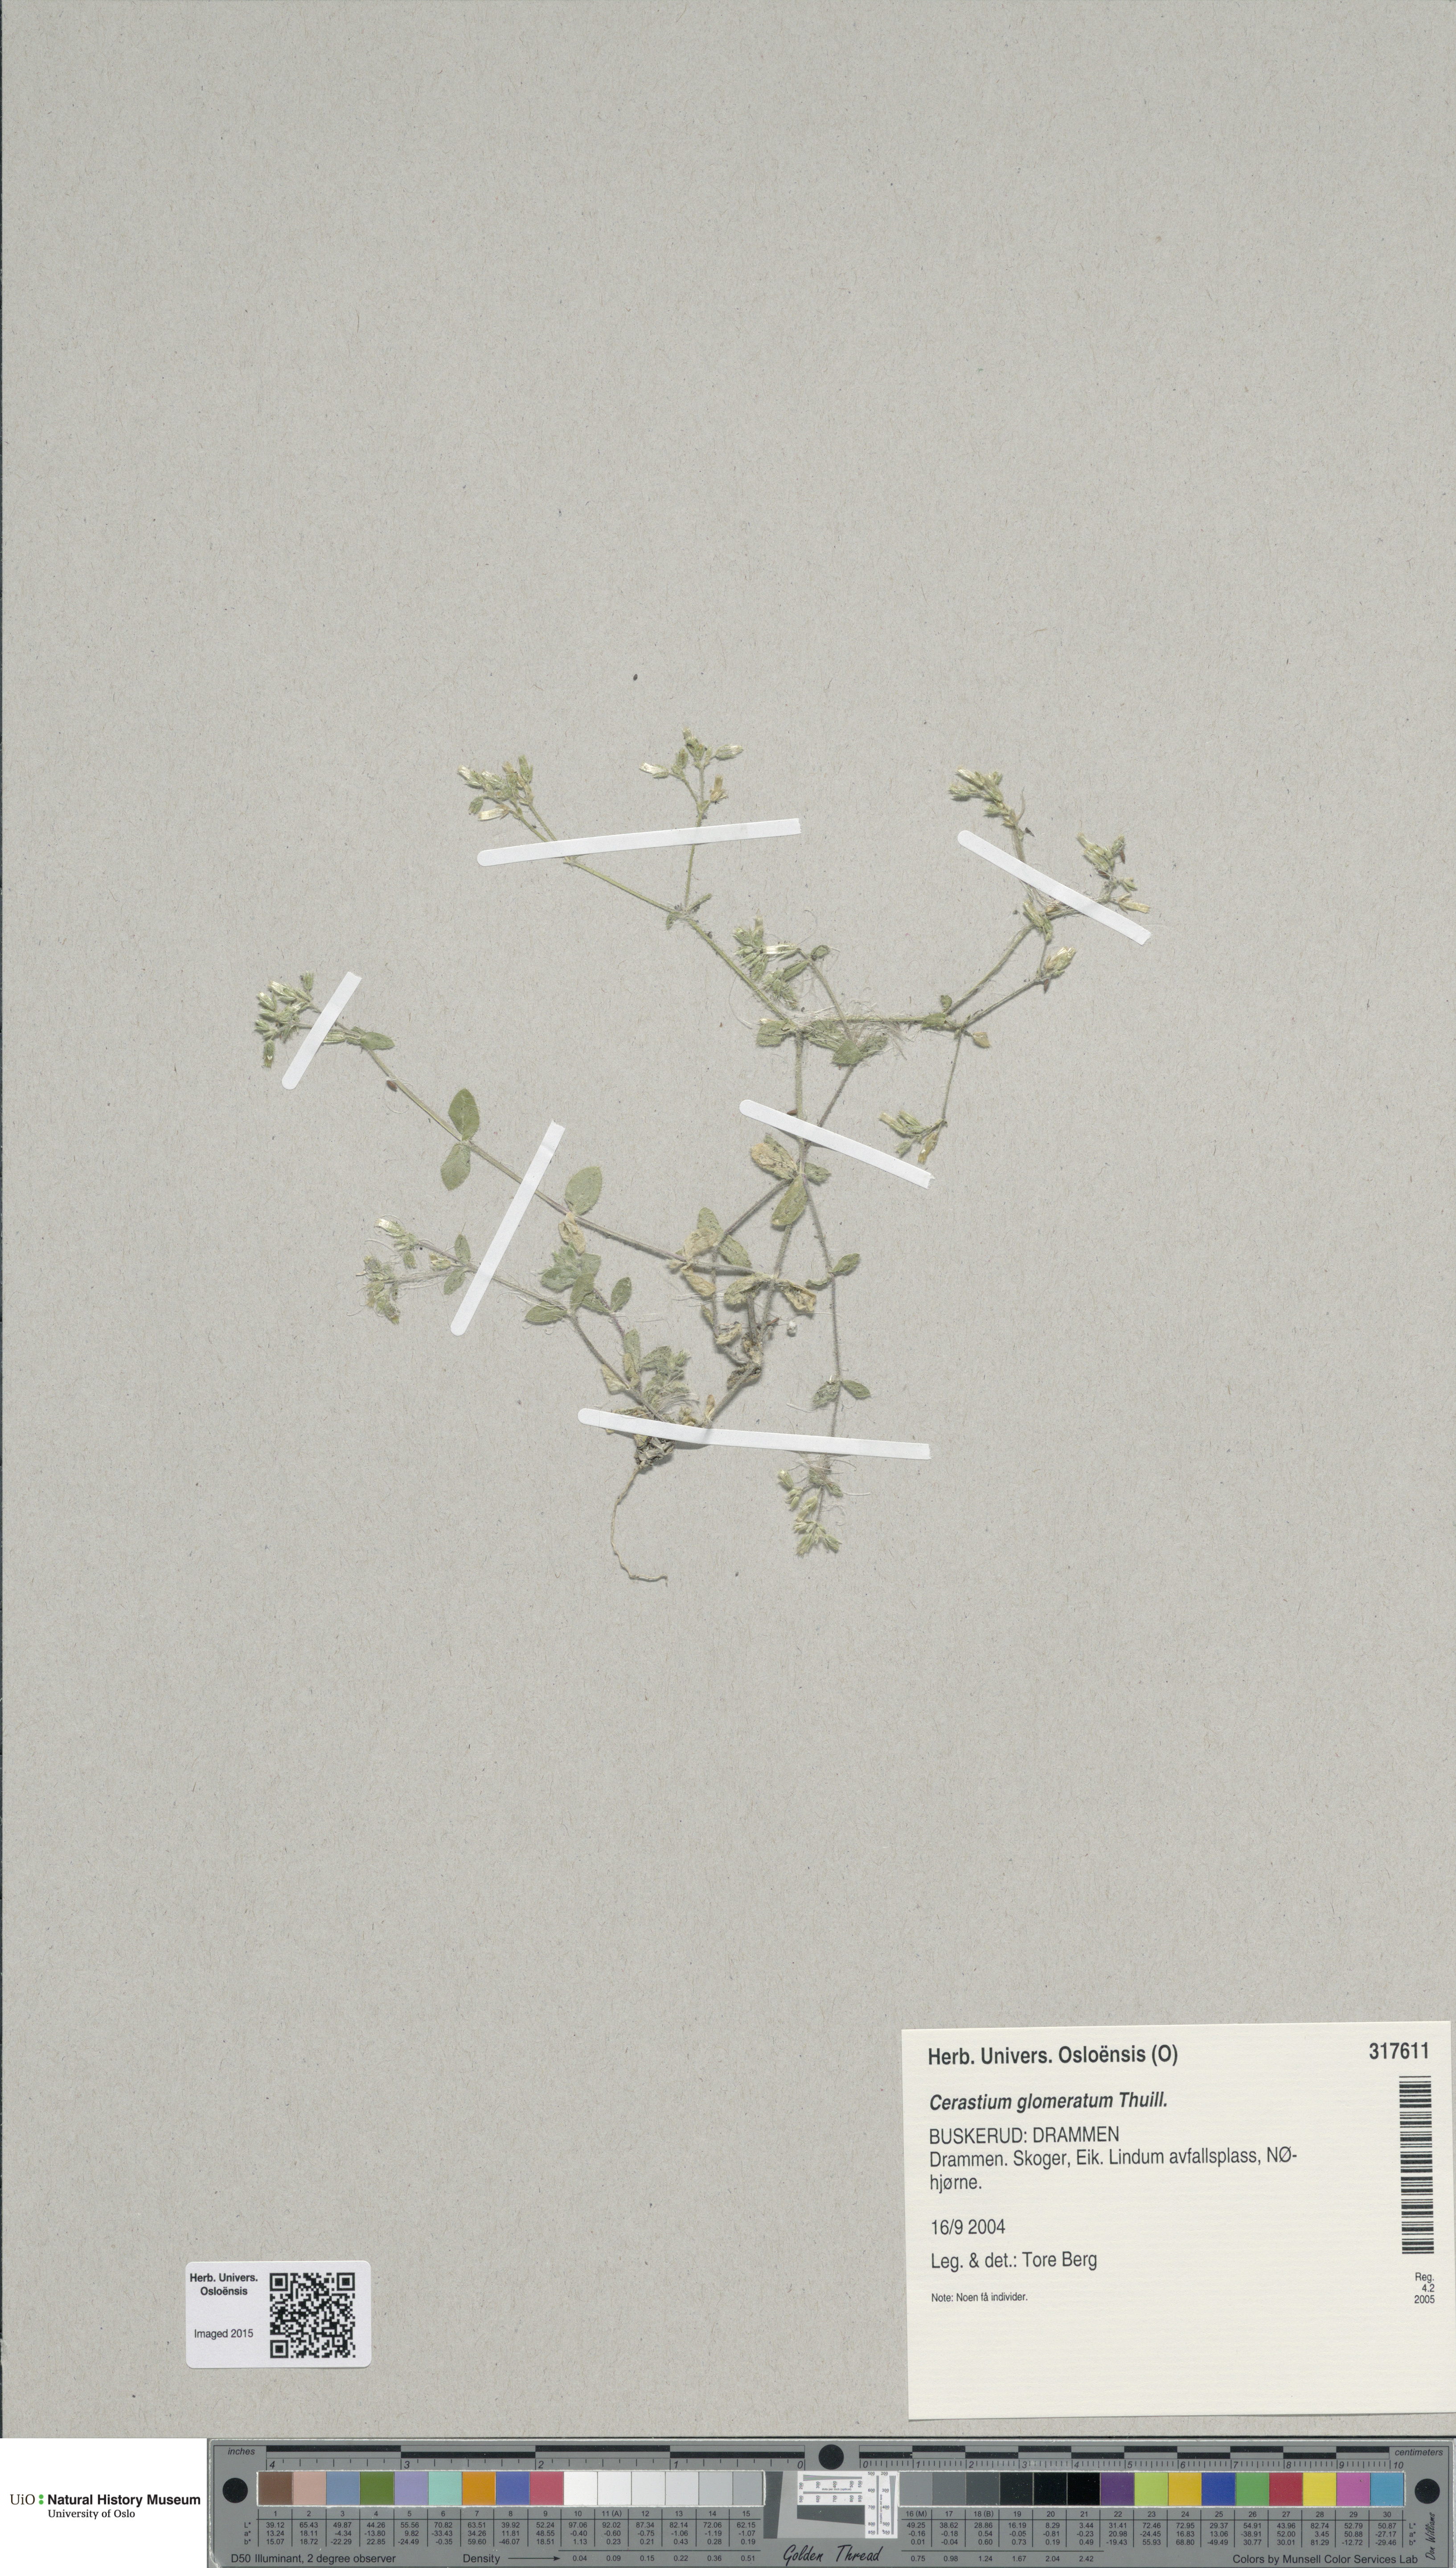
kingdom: Plantae
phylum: Tracheophyta
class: Magnoliopsida
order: Caryophyllales
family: Caryophyllaceae
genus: Cerastium
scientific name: Cerastium glomeratum
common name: Sticky chickweed
